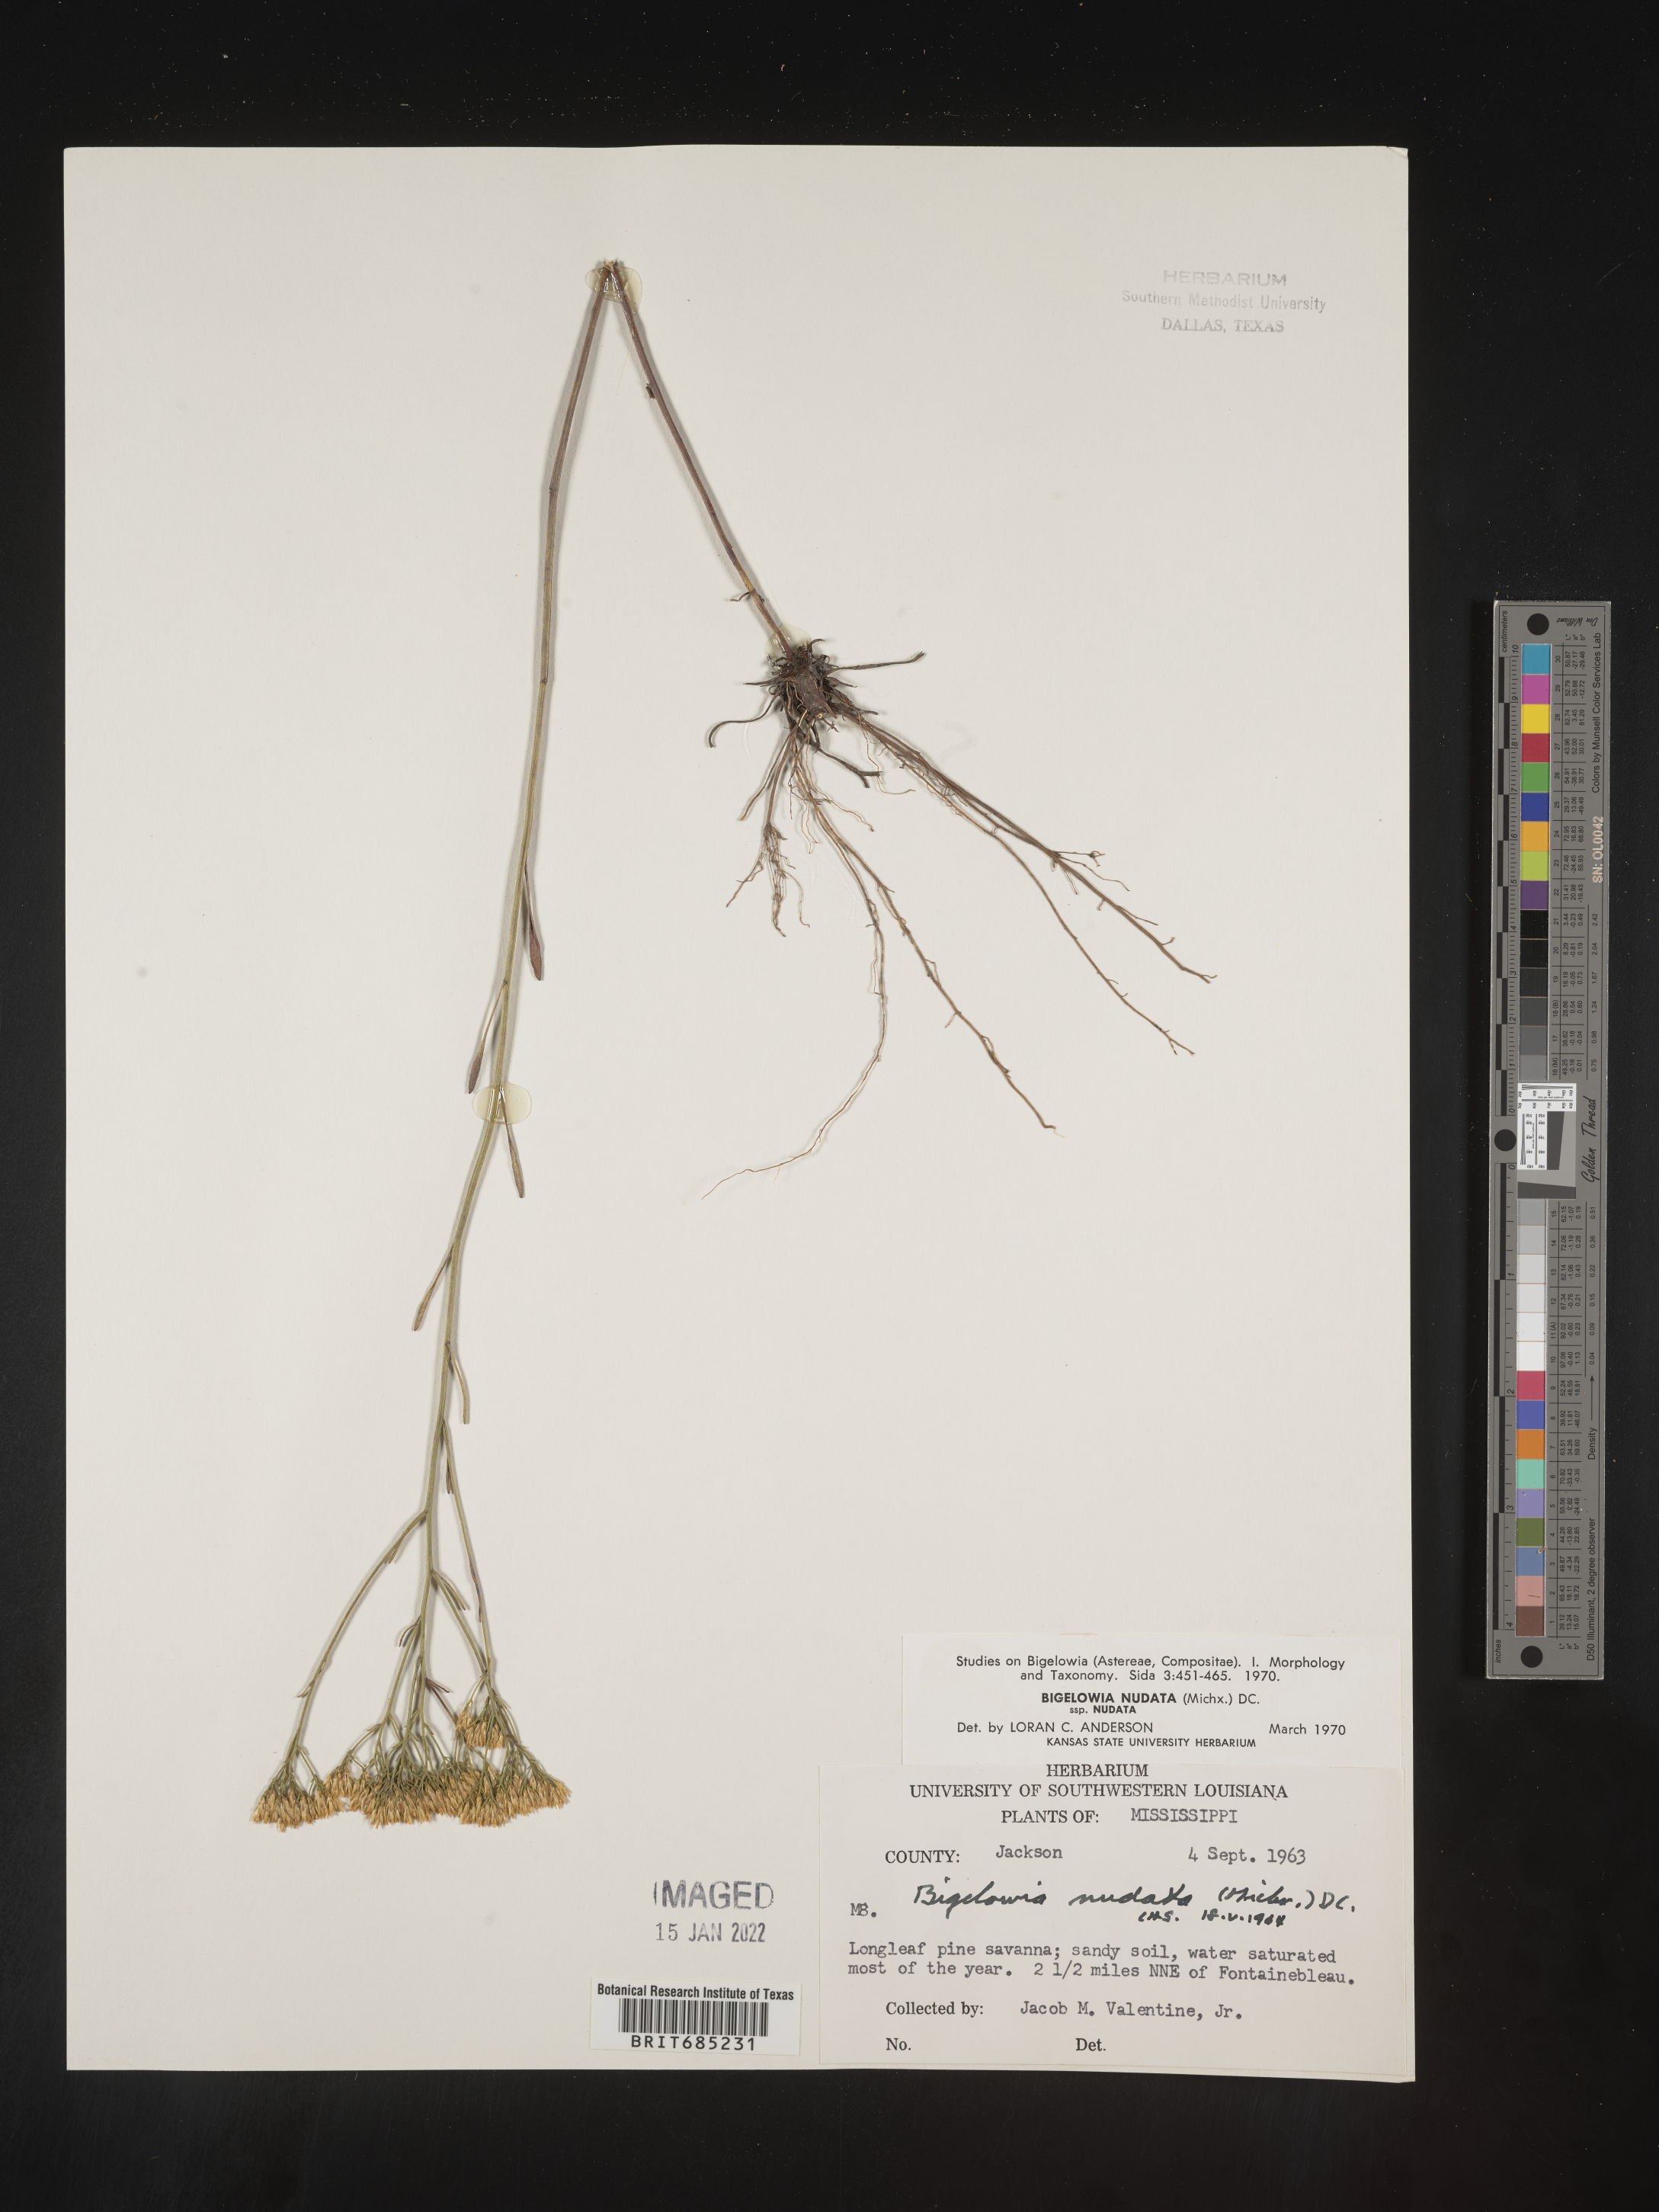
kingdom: Plantae
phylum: Tracheophyta
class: Magnoliopsida
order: Asterales
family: Asteraceae
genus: Bigelowia
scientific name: Bigelowia nudata
